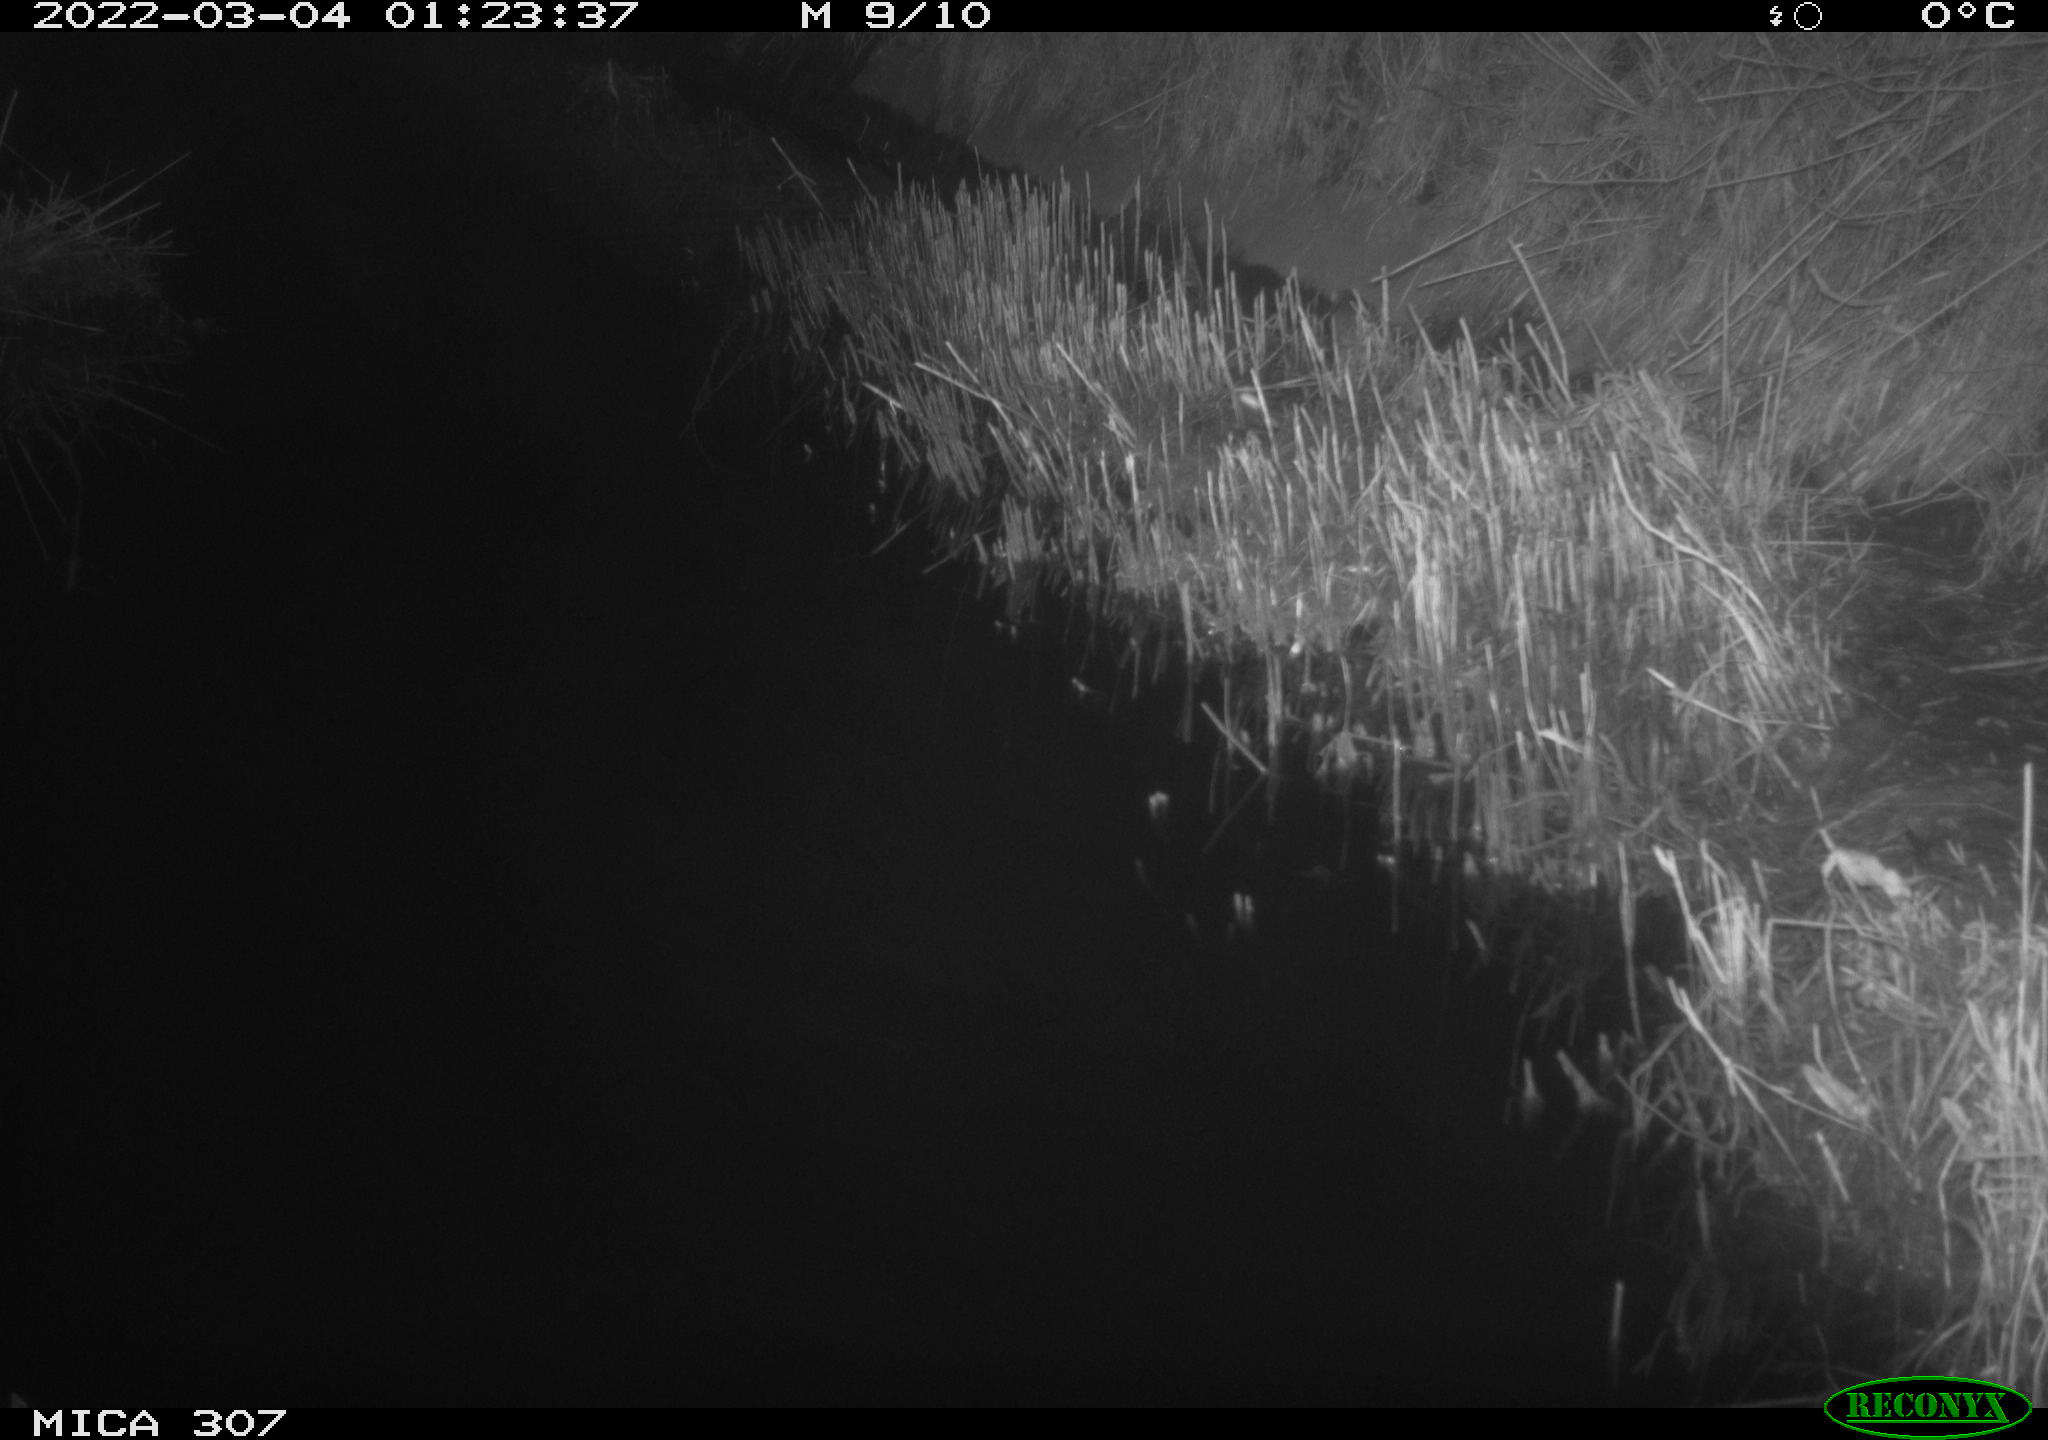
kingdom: Animalia
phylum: Chordata
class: Mammalia
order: Rodentia
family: Muridae
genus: Rattus
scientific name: Rattus norvegicus
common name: Brown rat
